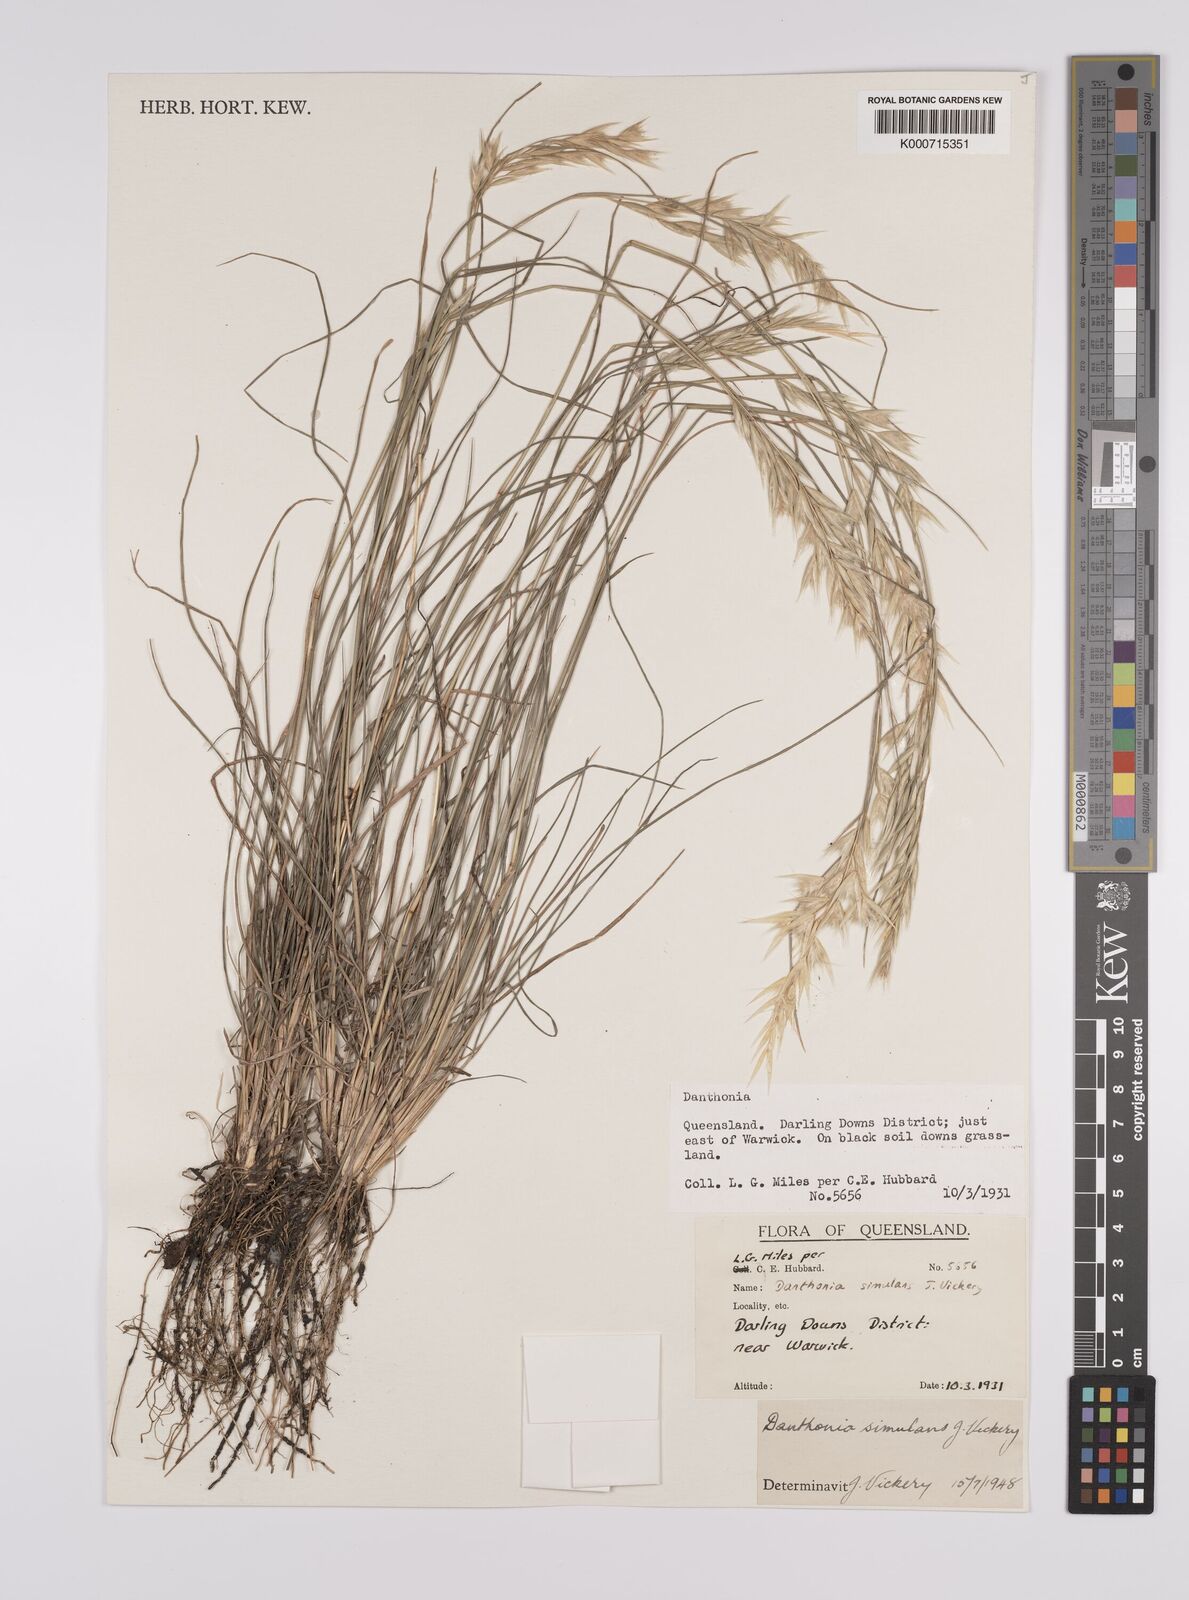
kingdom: Plantae
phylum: Tracheophyta
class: Liliopsida
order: Poales
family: Poaceae
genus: Rytidosperma
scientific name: Rytidosperma bipartitum
